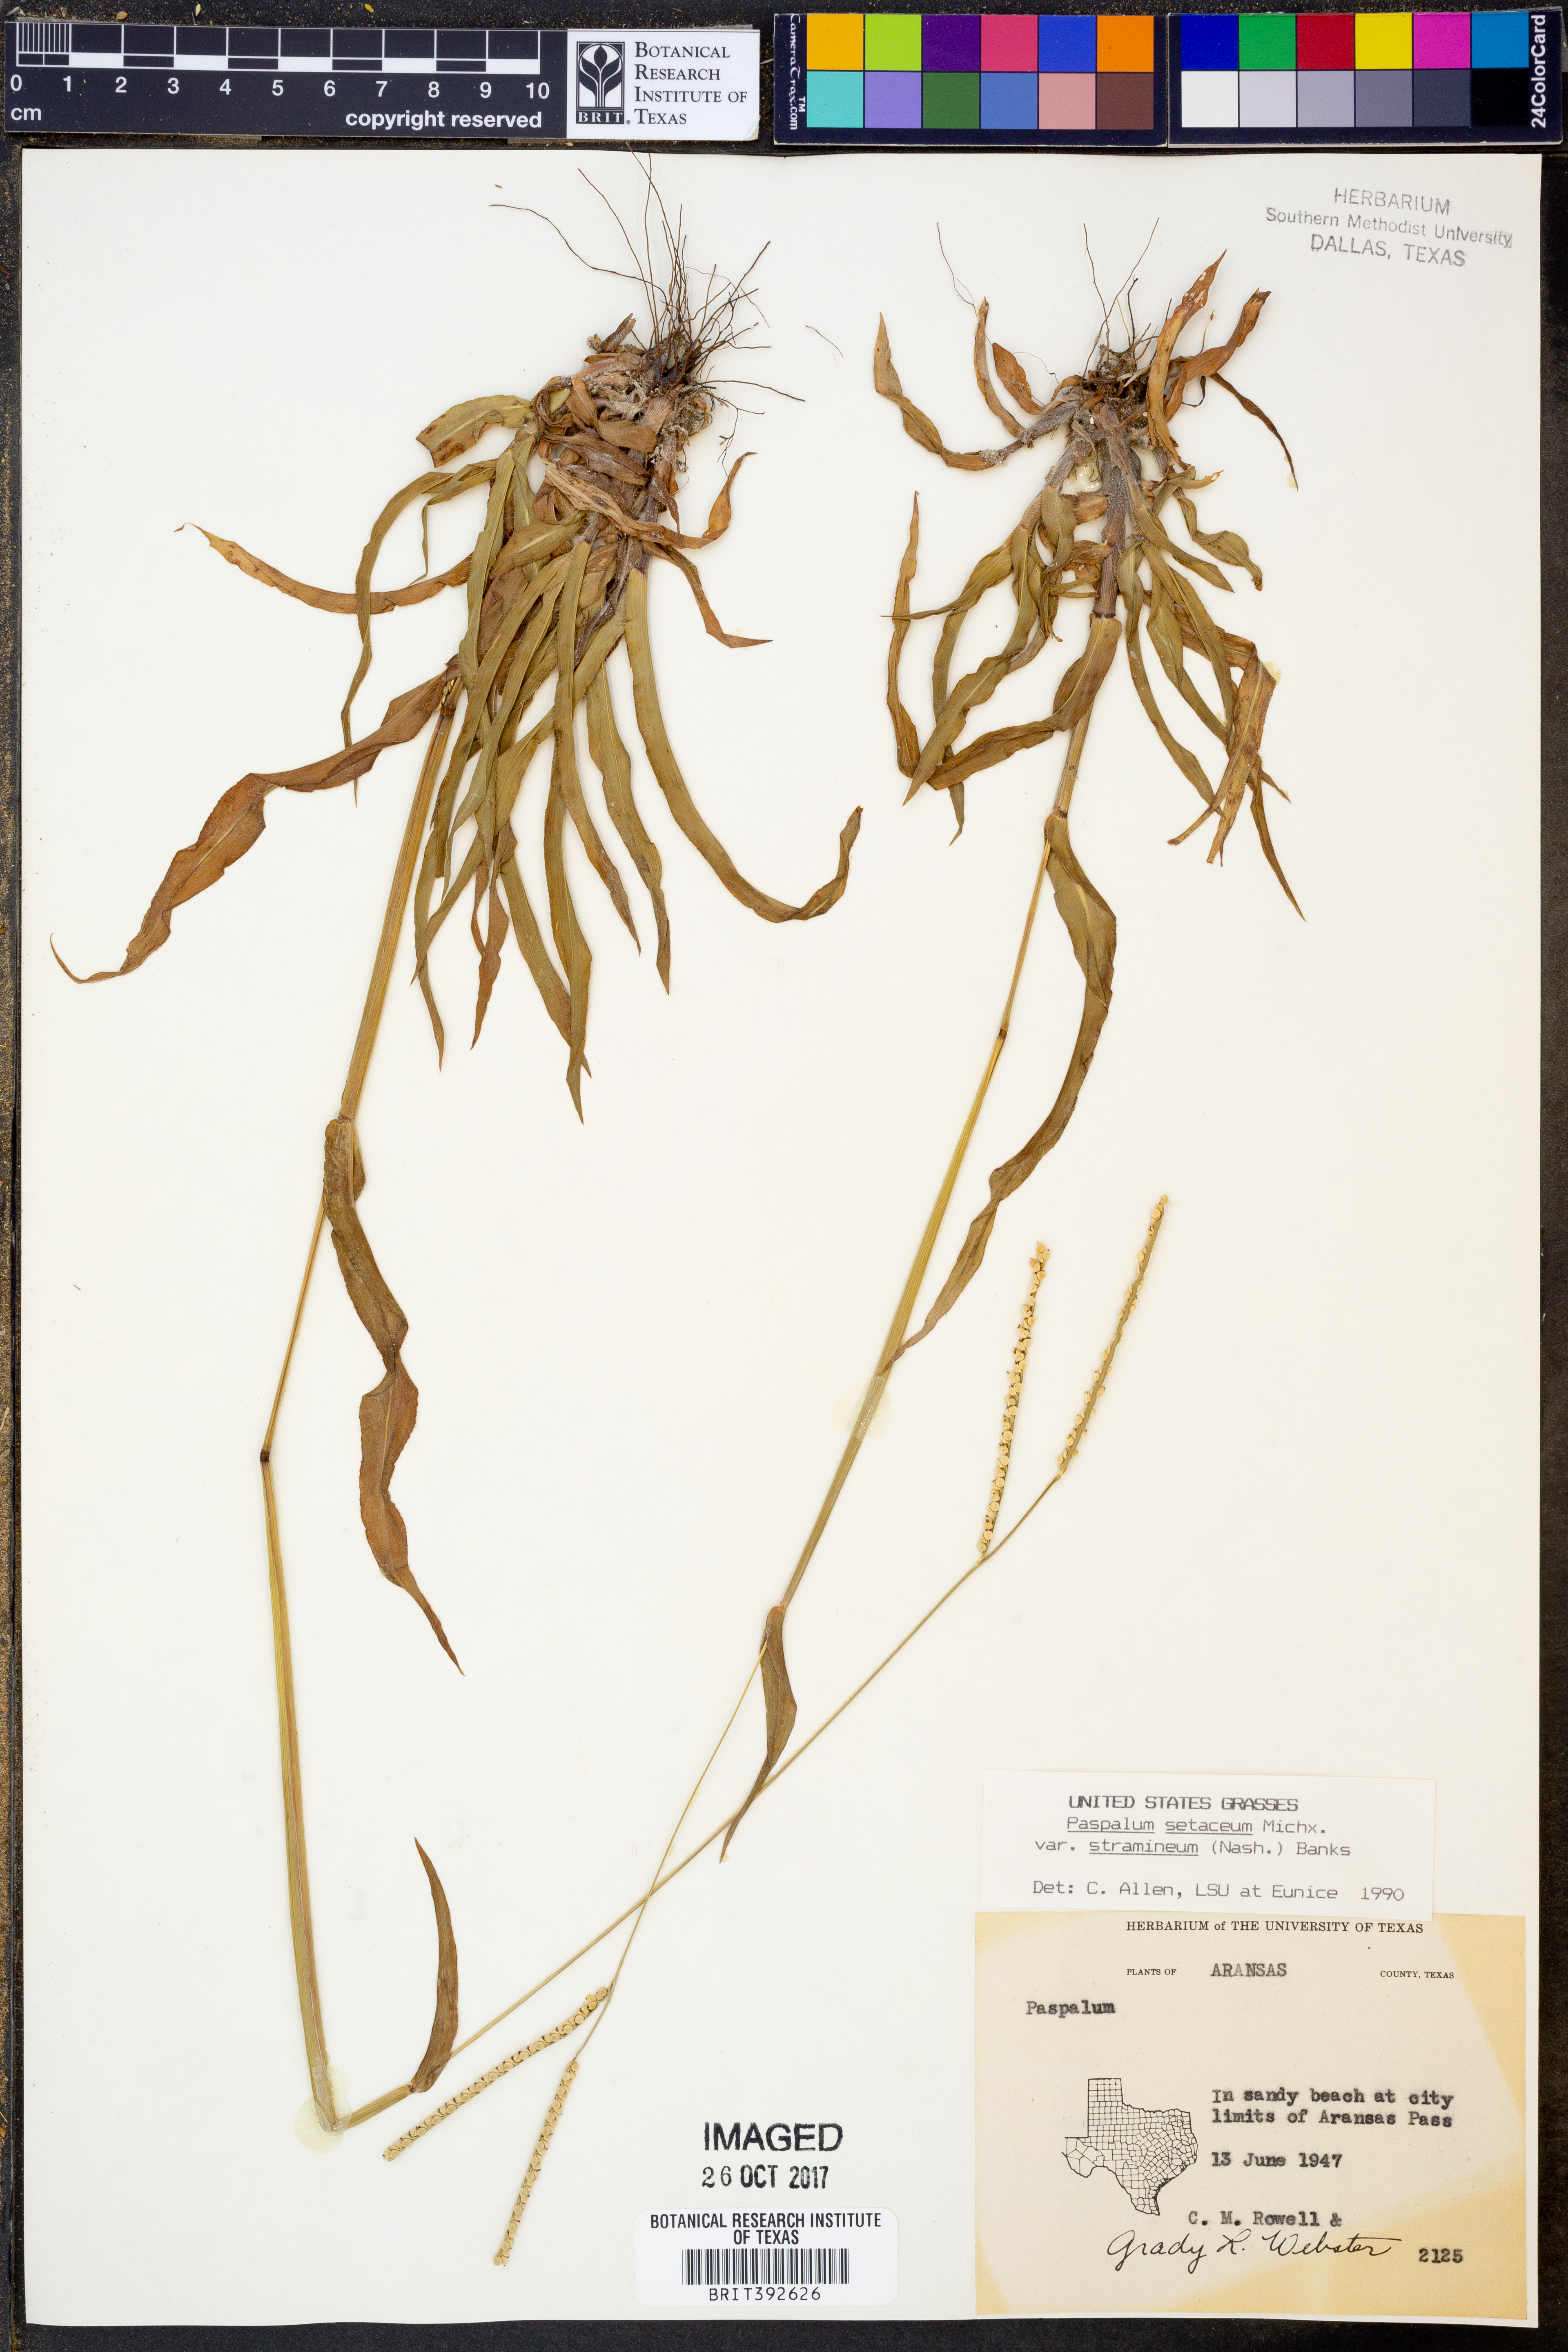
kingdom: Plantae
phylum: Tracheophyta
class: Liliopsida
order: Poales
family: Poaceae
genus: Paspalum
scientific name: Paspalum setaceum
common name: Slender paspalum
